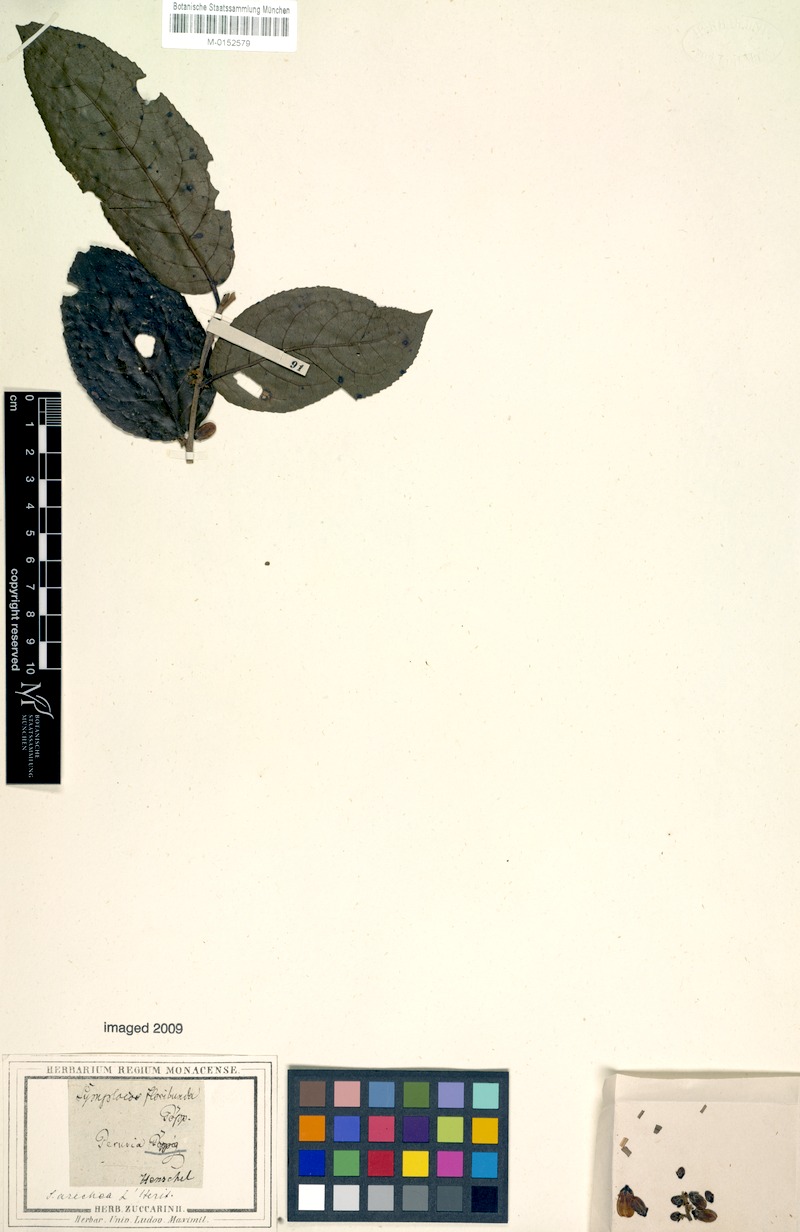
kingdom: Plantae
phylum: Tracheophyta
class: Magnoliopsida
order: Ericales
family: Symplocaceae
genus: Symplocos
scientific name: Symplocos arechea
